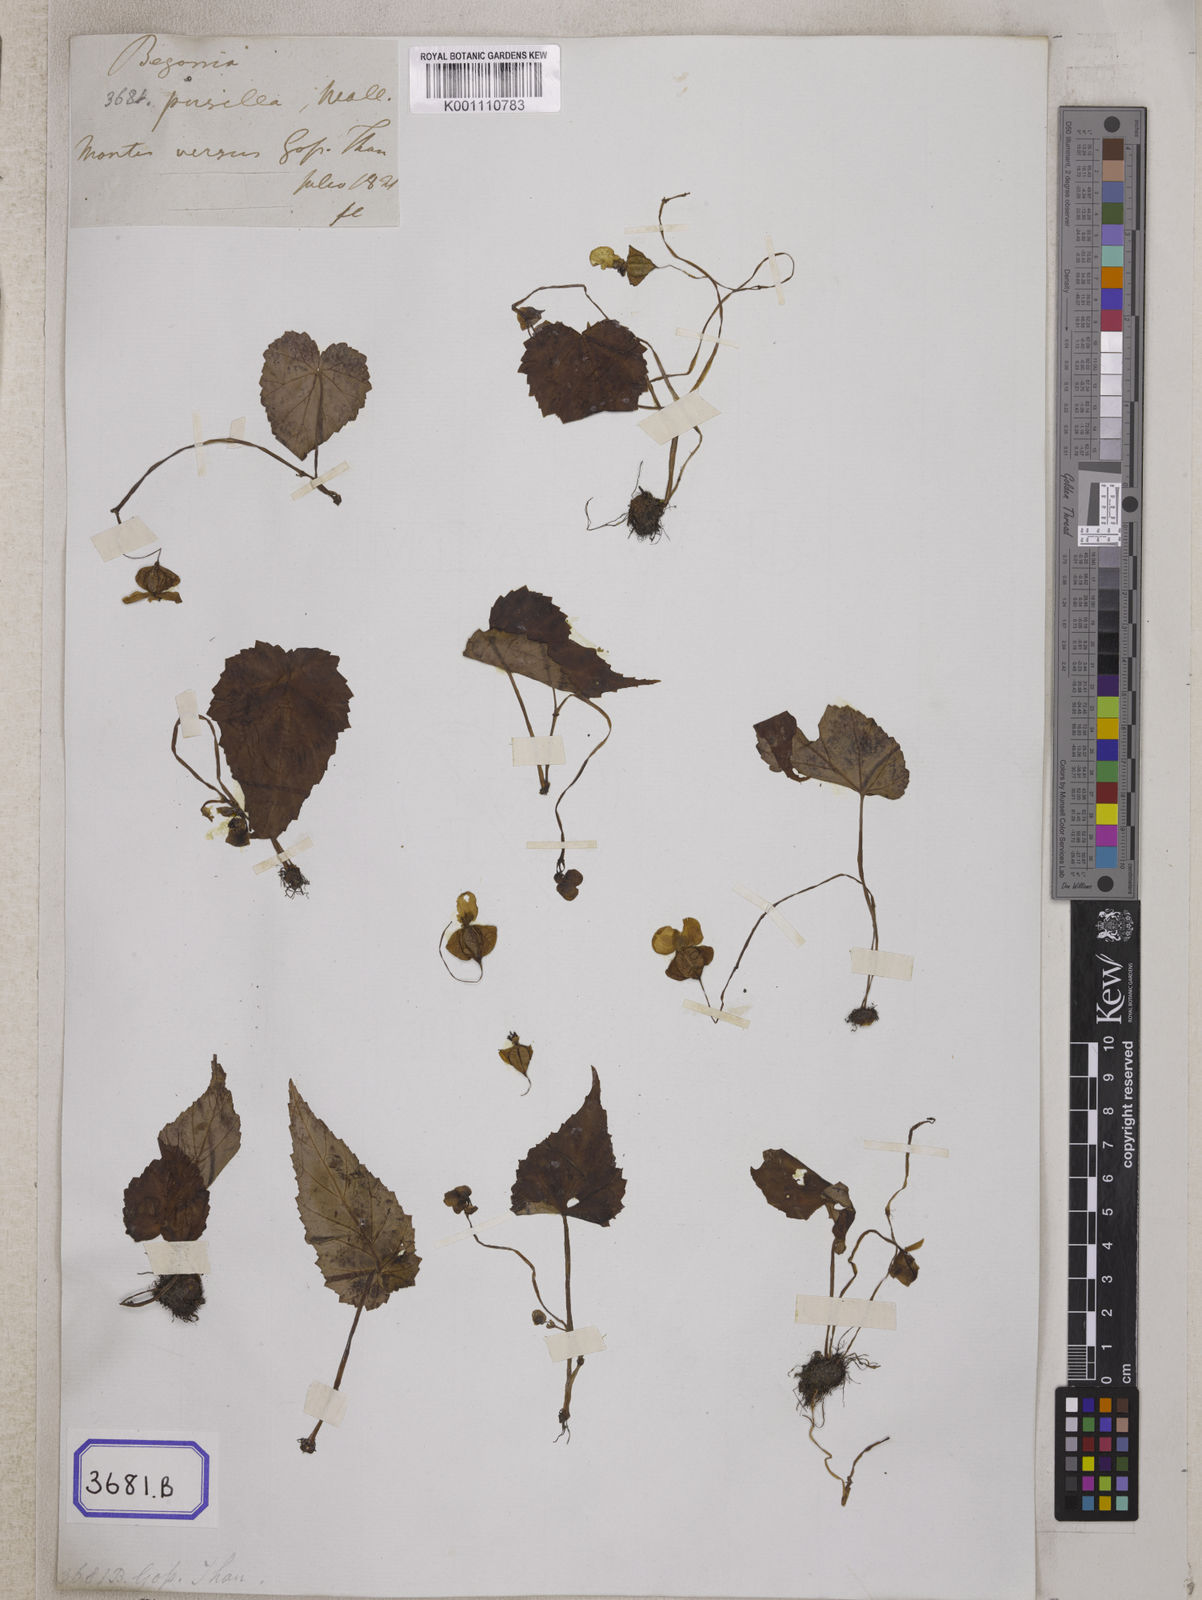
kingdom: Plantae
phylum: Tracheophyta
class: Magnoliopsida
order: Cucurbitales
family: Begoniaceae
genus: Begonia
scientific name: Begonia dioica
